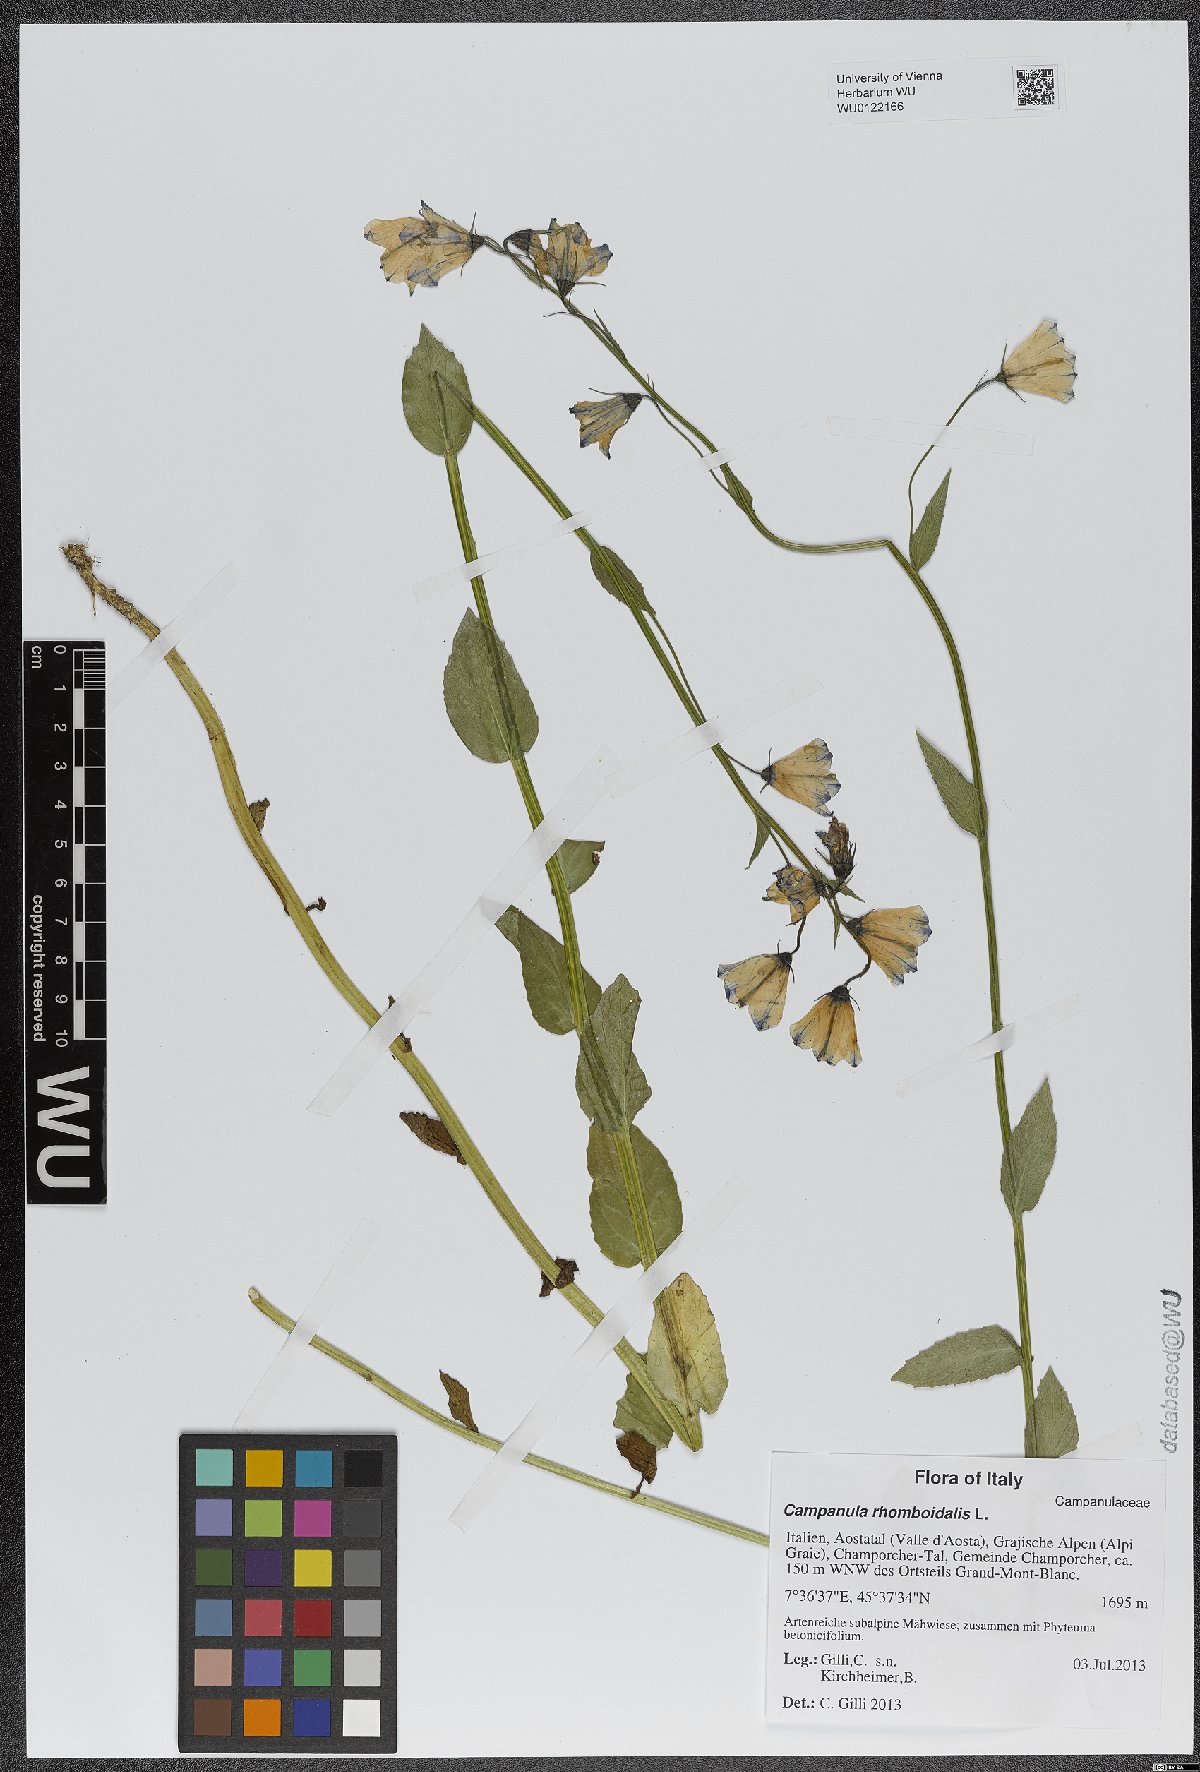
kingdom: Plantae
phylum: Tracheophyta
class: Magnoliopsida
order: Asterales
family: Campanulaceae
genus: Campanula
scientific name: Campanula rhomboidalis
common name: Broad-leaved harebell
